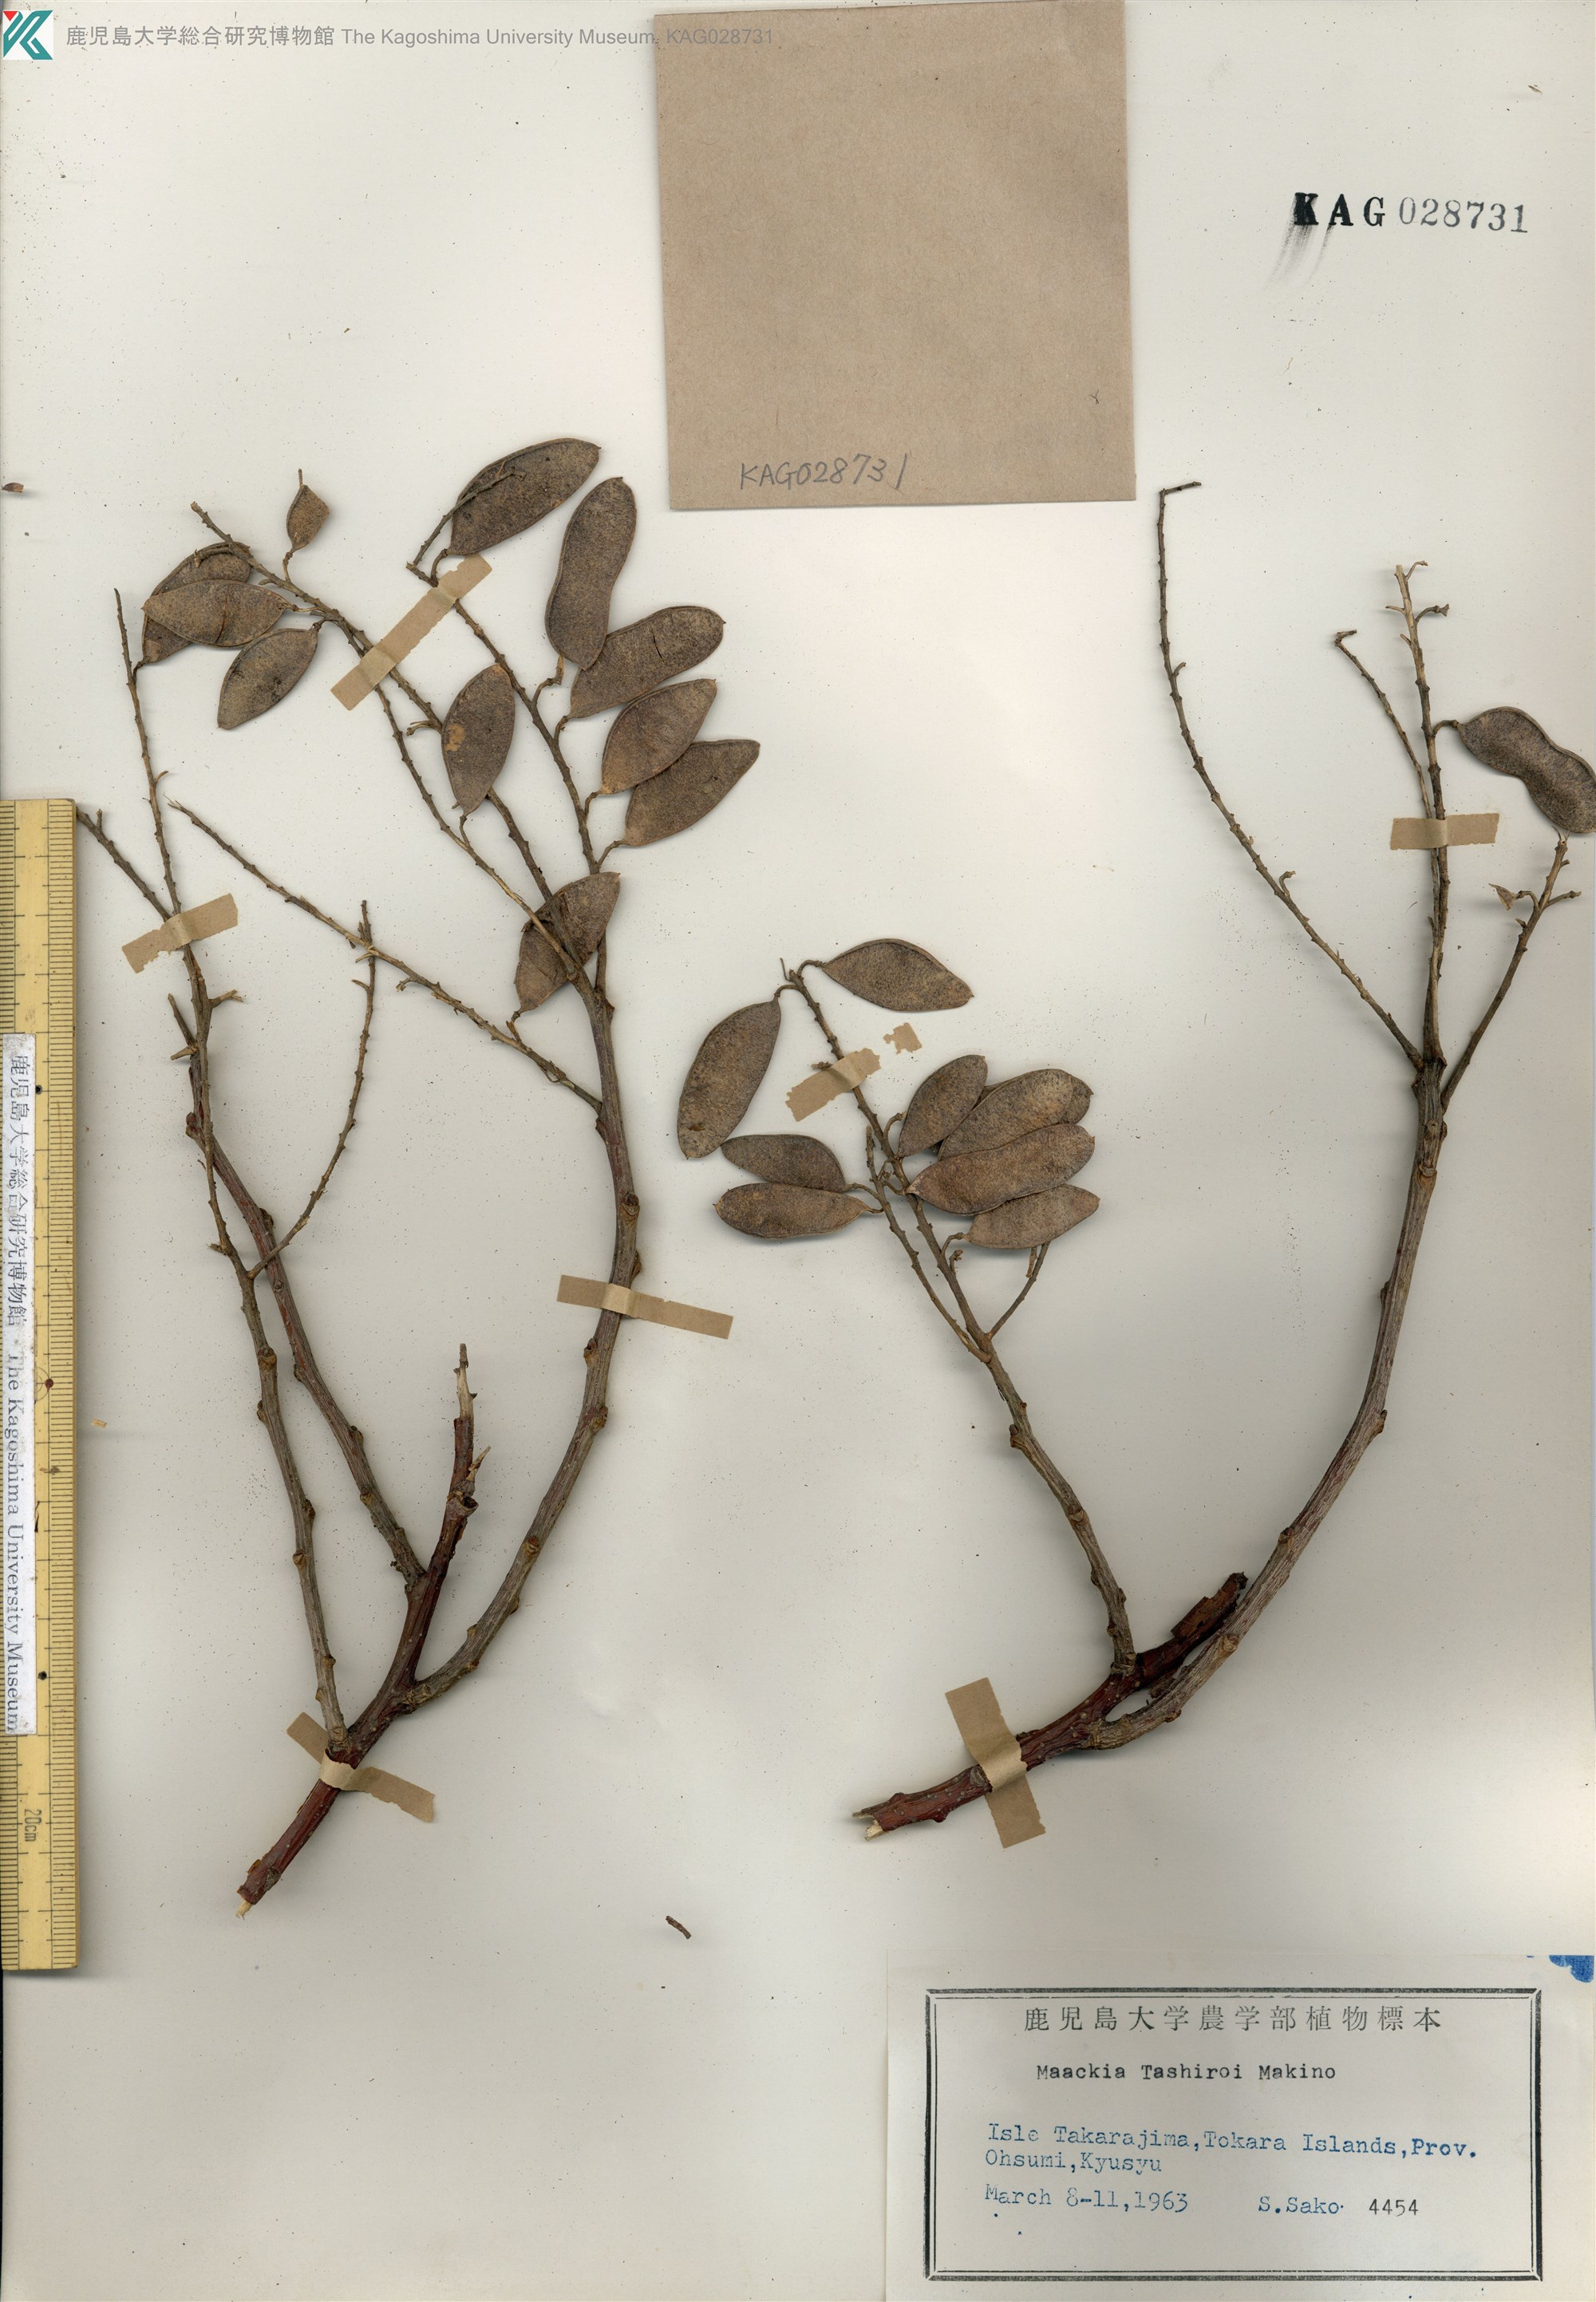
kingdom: Plantae
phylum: Tracheophyta
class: Magnoliopsida
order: Fabales
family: Fabaceae
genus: Maackia
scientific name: Maackia tashiroi
